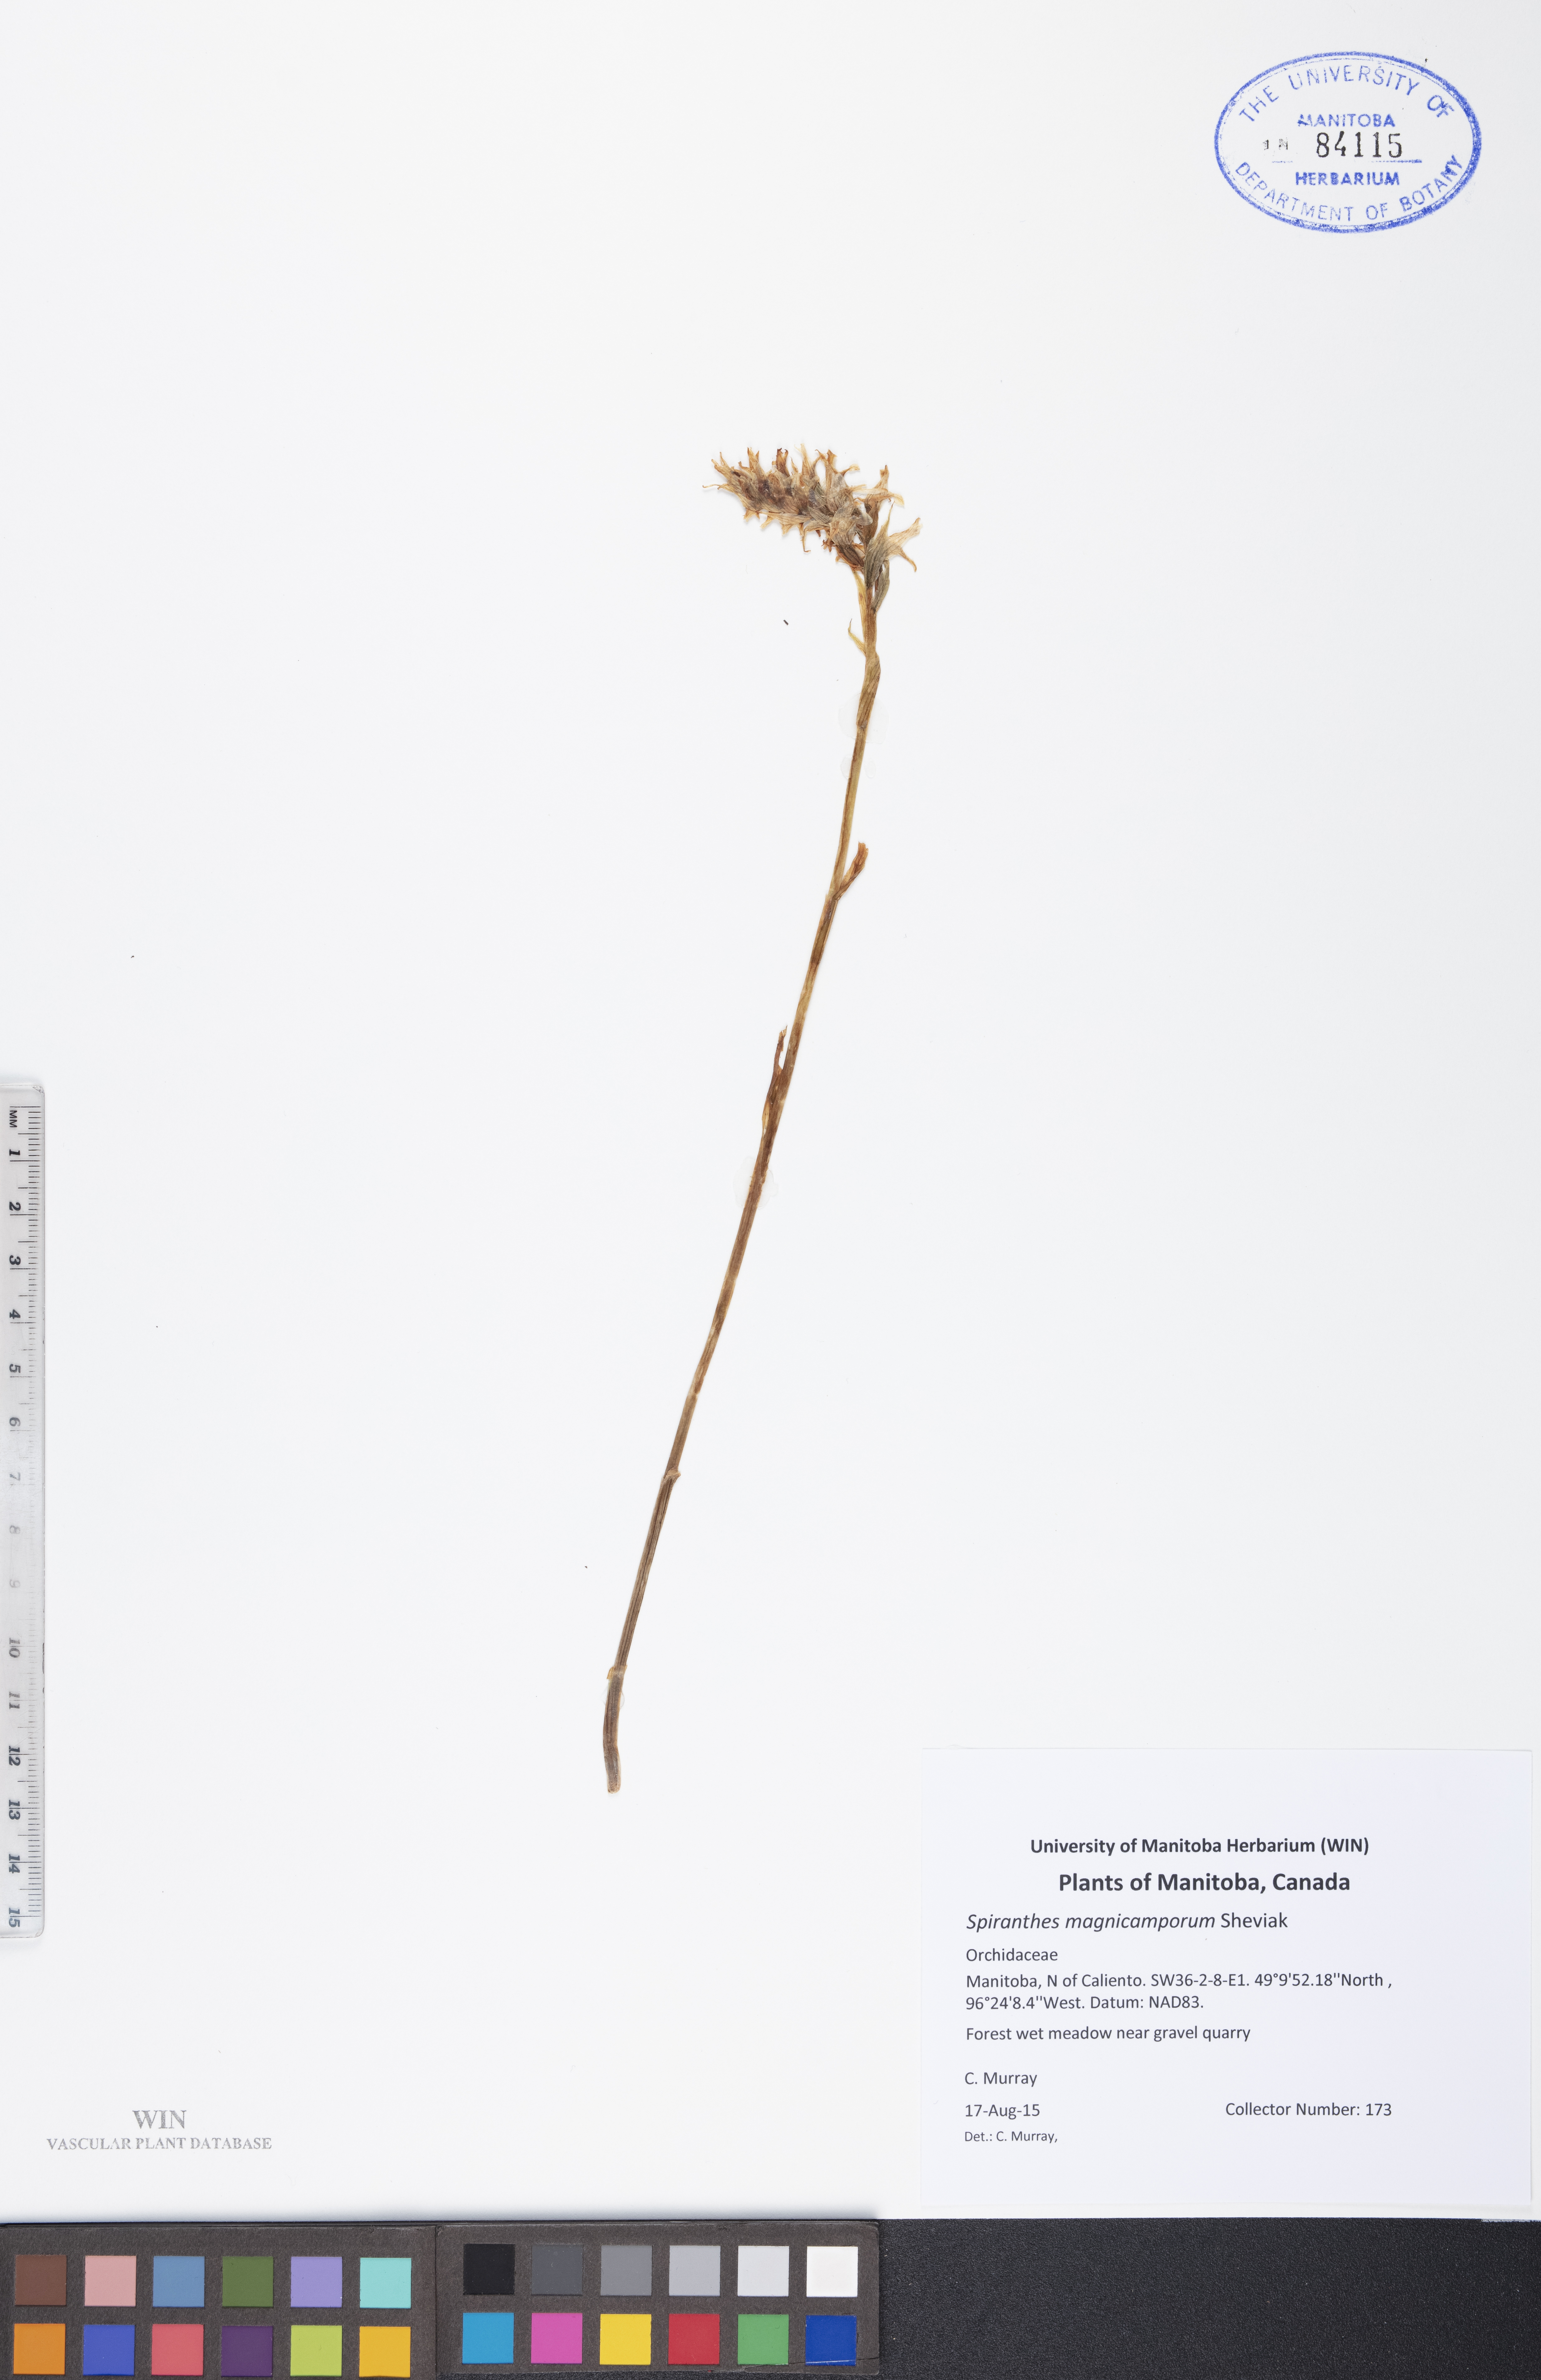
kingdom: Plantae
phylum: Tracheophyta
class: Liliopsida
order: Asparagales
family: Orchidaceae
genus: Spiranthes
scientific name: Spiranthes magnicamporum
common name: Great plains ladies'-tresses
